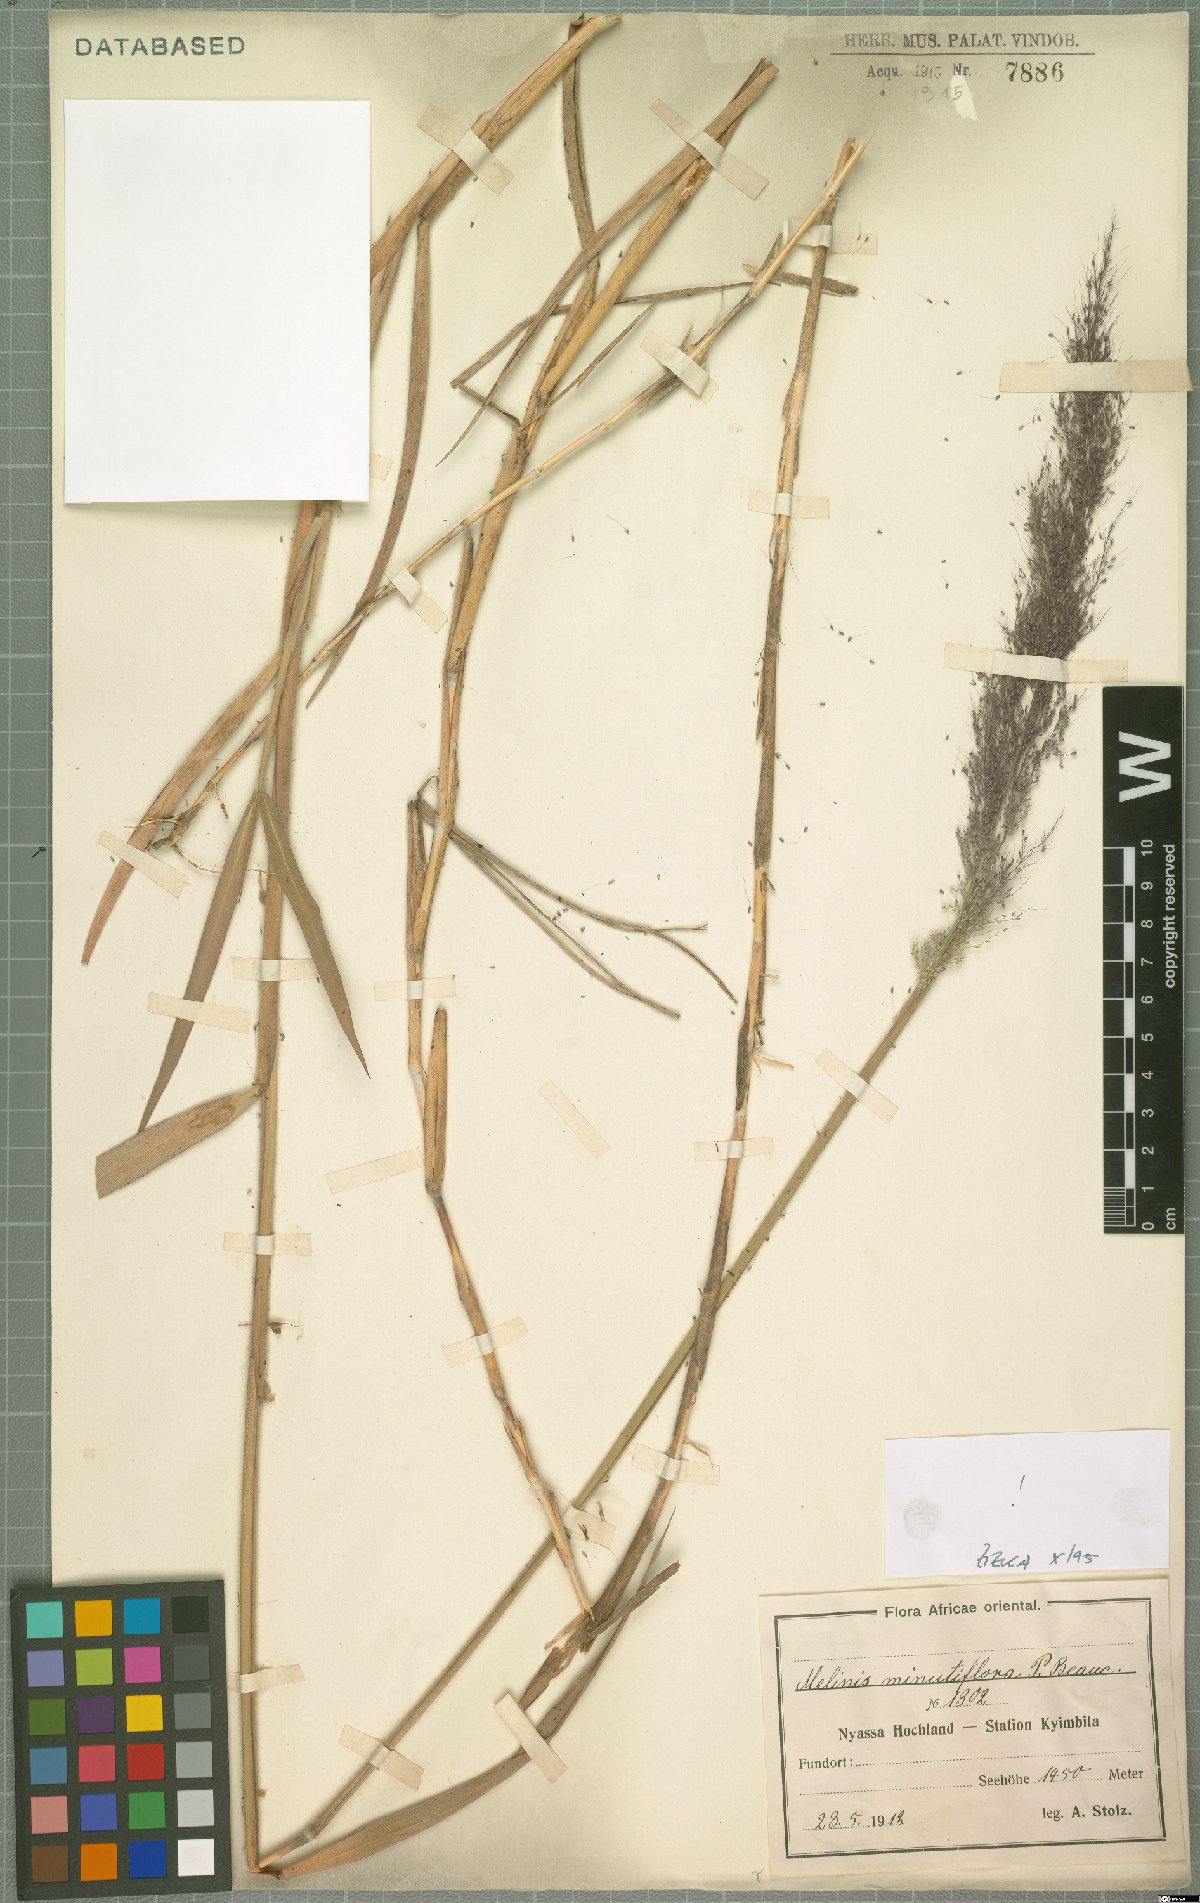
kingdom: Plantae
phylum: Tracheophyta
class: Liliopsida
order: Poales
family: Poaceae
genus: Melinis
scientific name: Melinis minutiflora
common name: Molassesgrass
